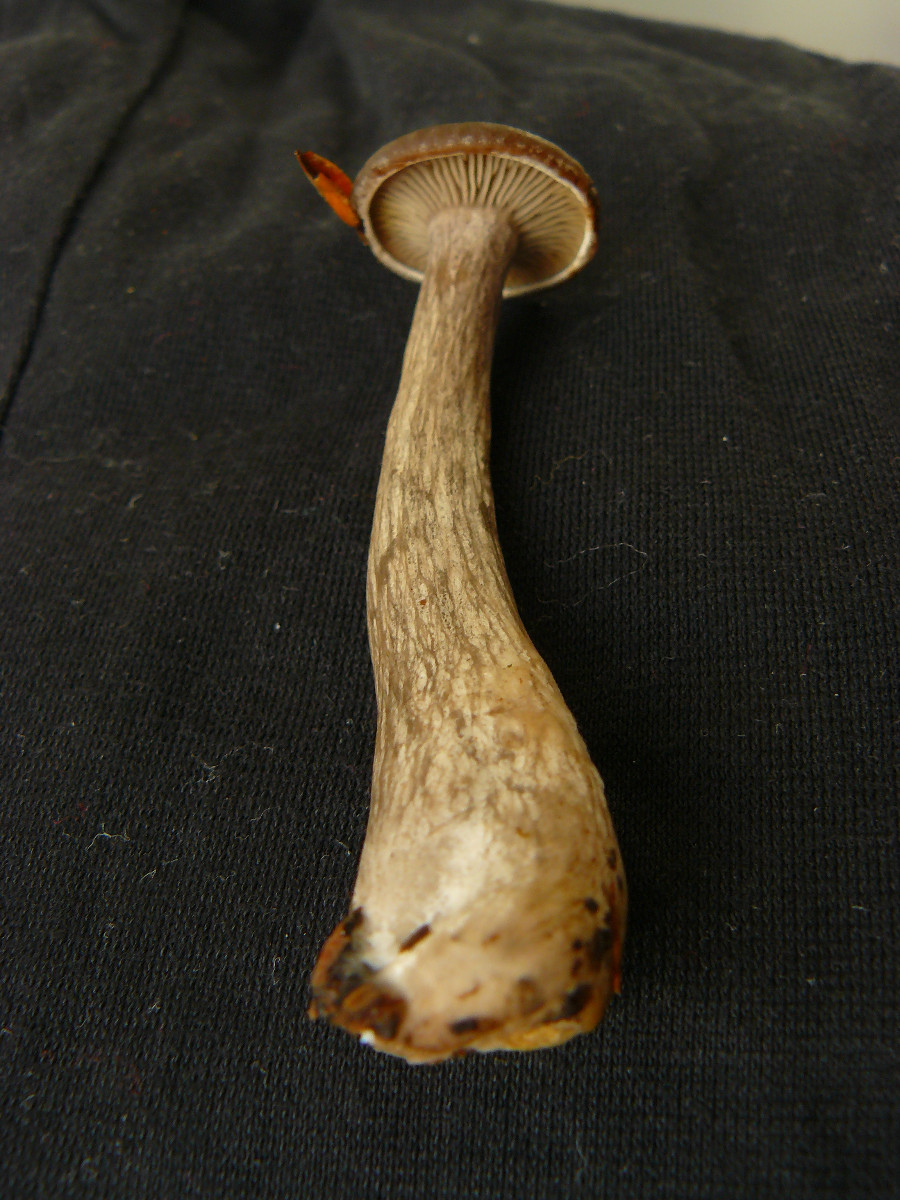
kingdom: Fungi
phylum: Basidiomycota
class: Agaricomycetes
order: Agaricales
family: Pseudoclitocybaceae
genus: Pseudoclitocybe
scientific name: Pseudoclitocybe cyathiformis
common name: almindelig bægertragthat
